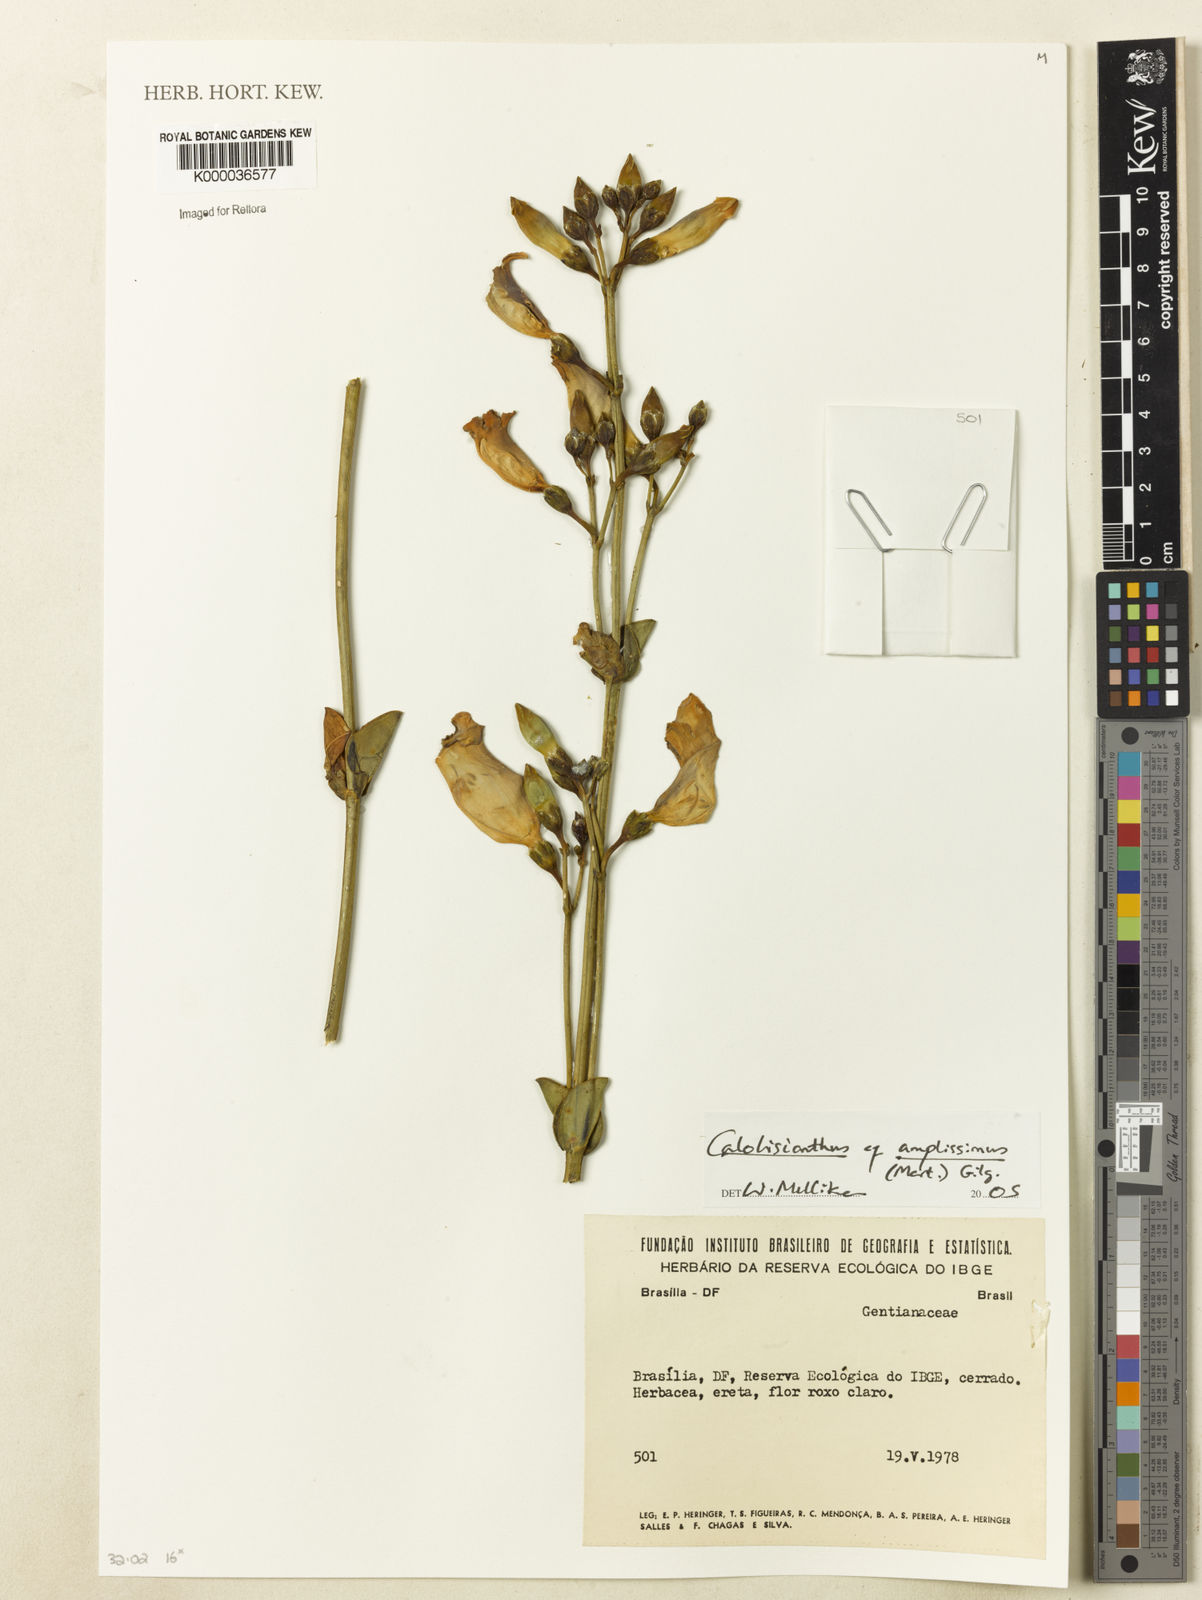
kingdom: Plantae
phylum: Tracheophyta
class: Magnoliopsida
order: Gentianales
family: Gentianaceae
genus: Calolisianthus
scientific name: Calolisianthus amplissimus
